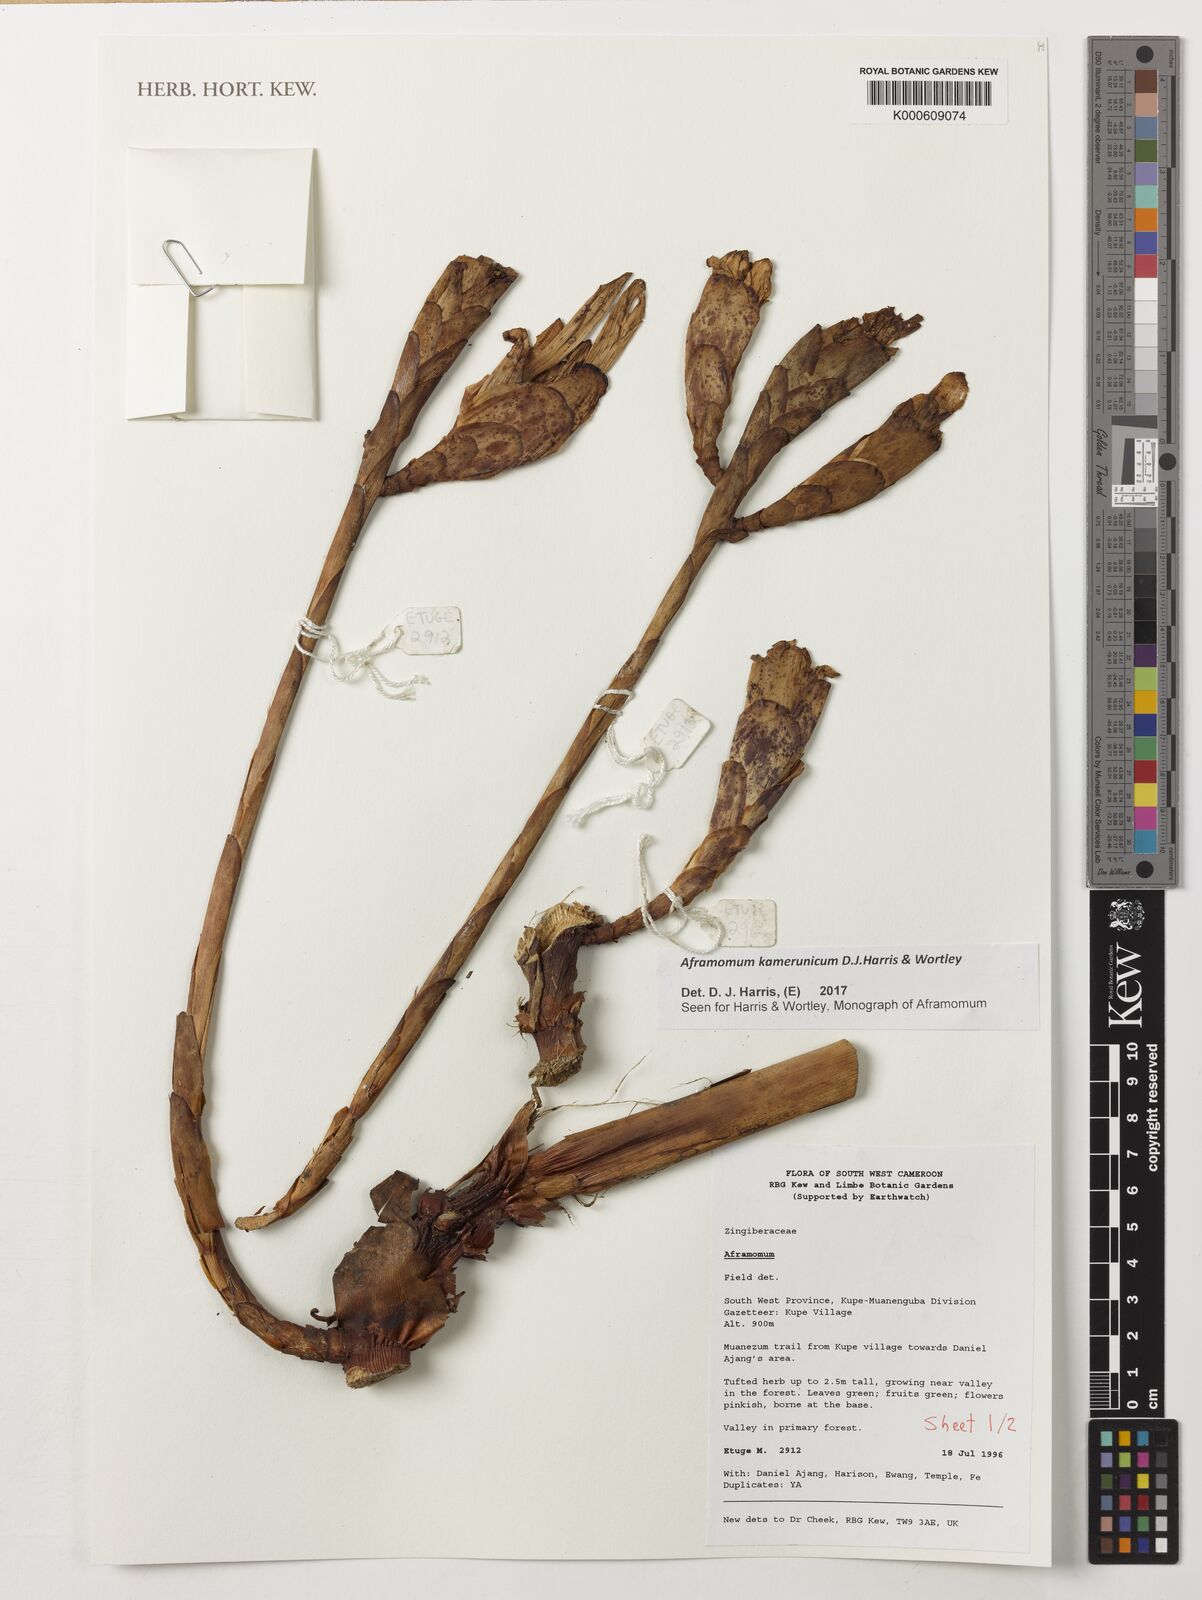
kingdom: Plantae
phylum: Tracheophyta
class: Liliopsida
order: Zingiberales
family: Zingiberaceae
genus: Aframomum
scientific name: Aframomum kamerunicum
